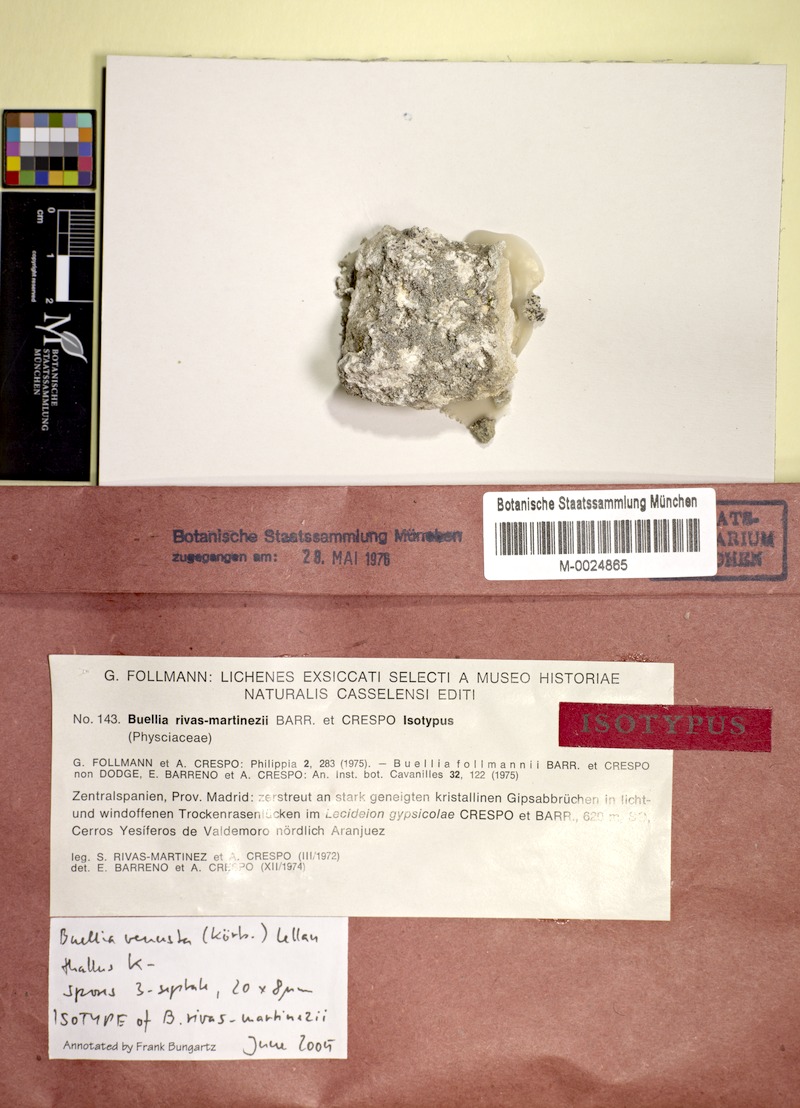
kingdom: Fungi
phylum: Ascomycota
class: Lecanoromycetes
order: Caliciales
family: Caliciaceae
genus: Diplotomma
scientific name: Diplotomma venustum
